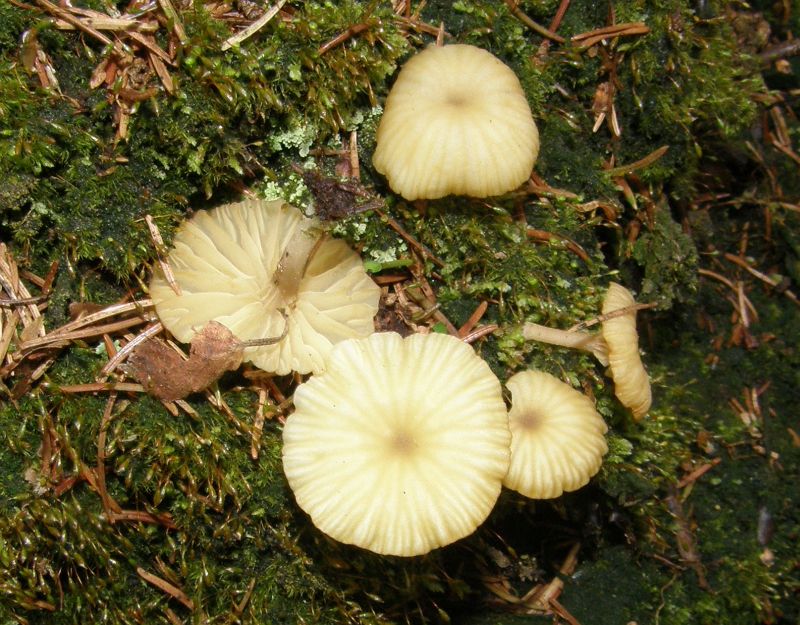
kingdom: Fungi
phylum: Basidiomycota
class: Agaricomycetes
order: Agaricales
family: Hygrophoraceae
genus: Lichenomphalia
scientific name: Lichenomphalia umbellifera
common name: tørve-lavhat
